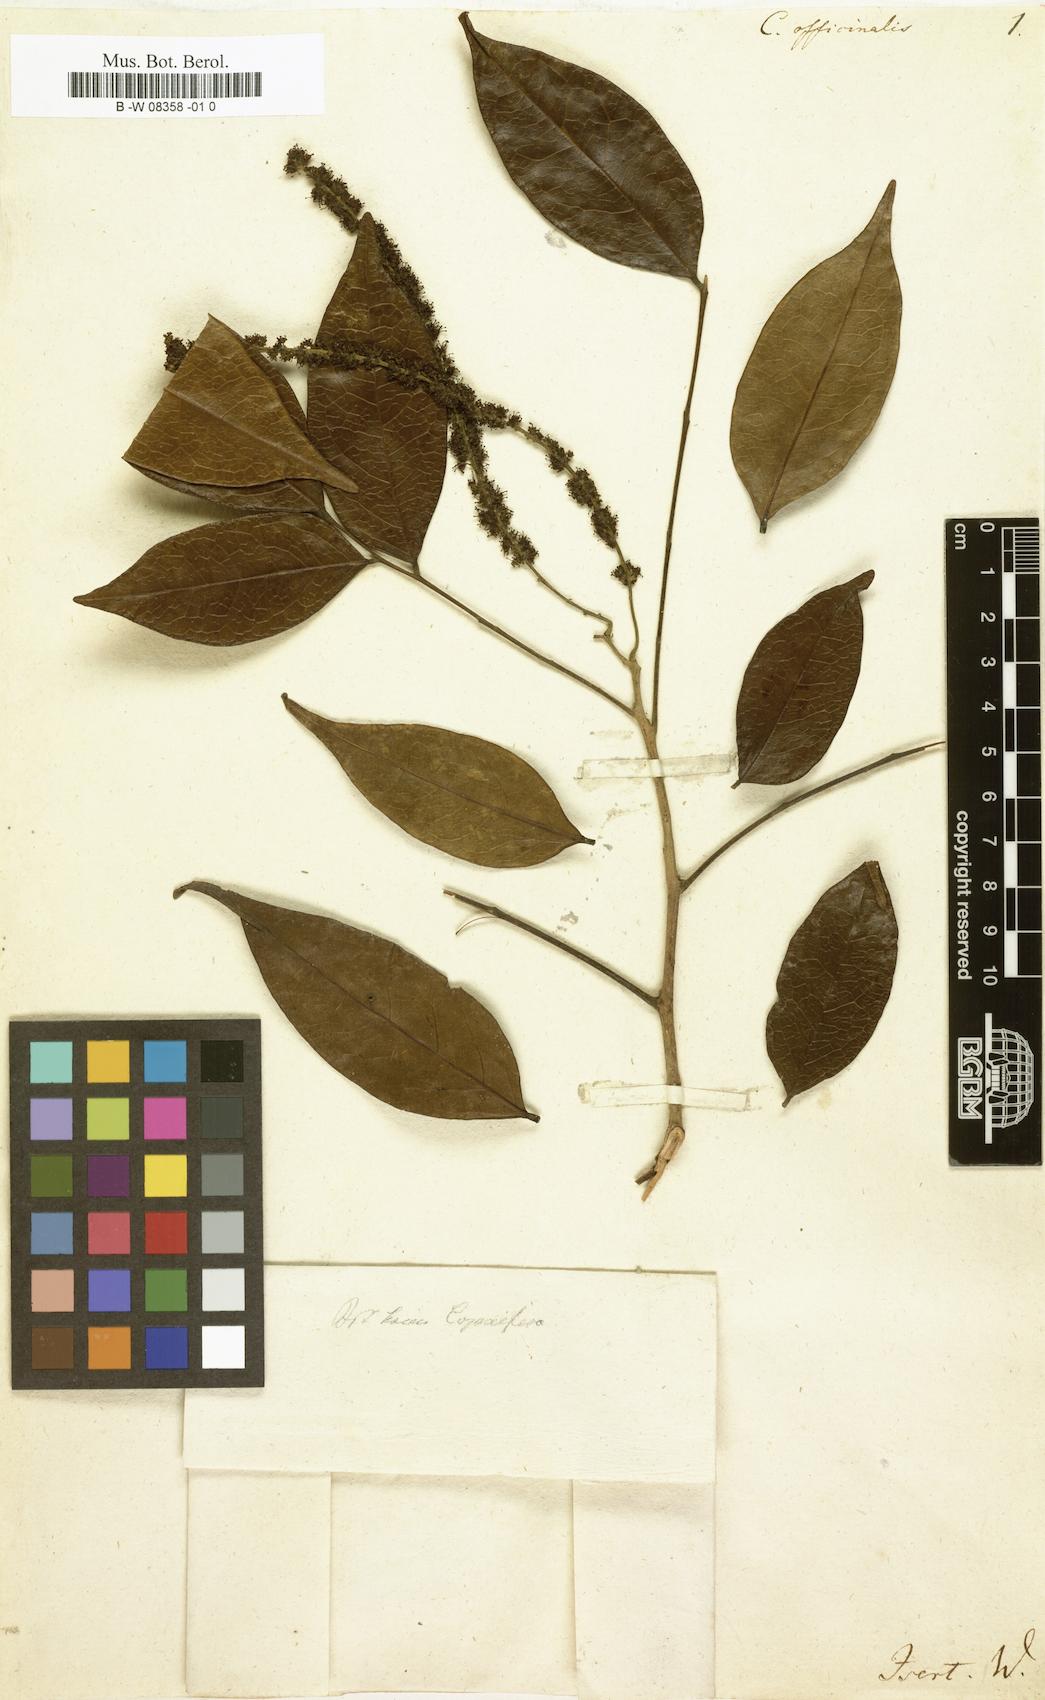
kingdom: Plantae
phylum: Tracheophyta
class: Magnoliopsida
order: Fabales
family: Fabaceae
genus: Copaifera
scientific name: Copaifera officinalis
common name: Copaiba
